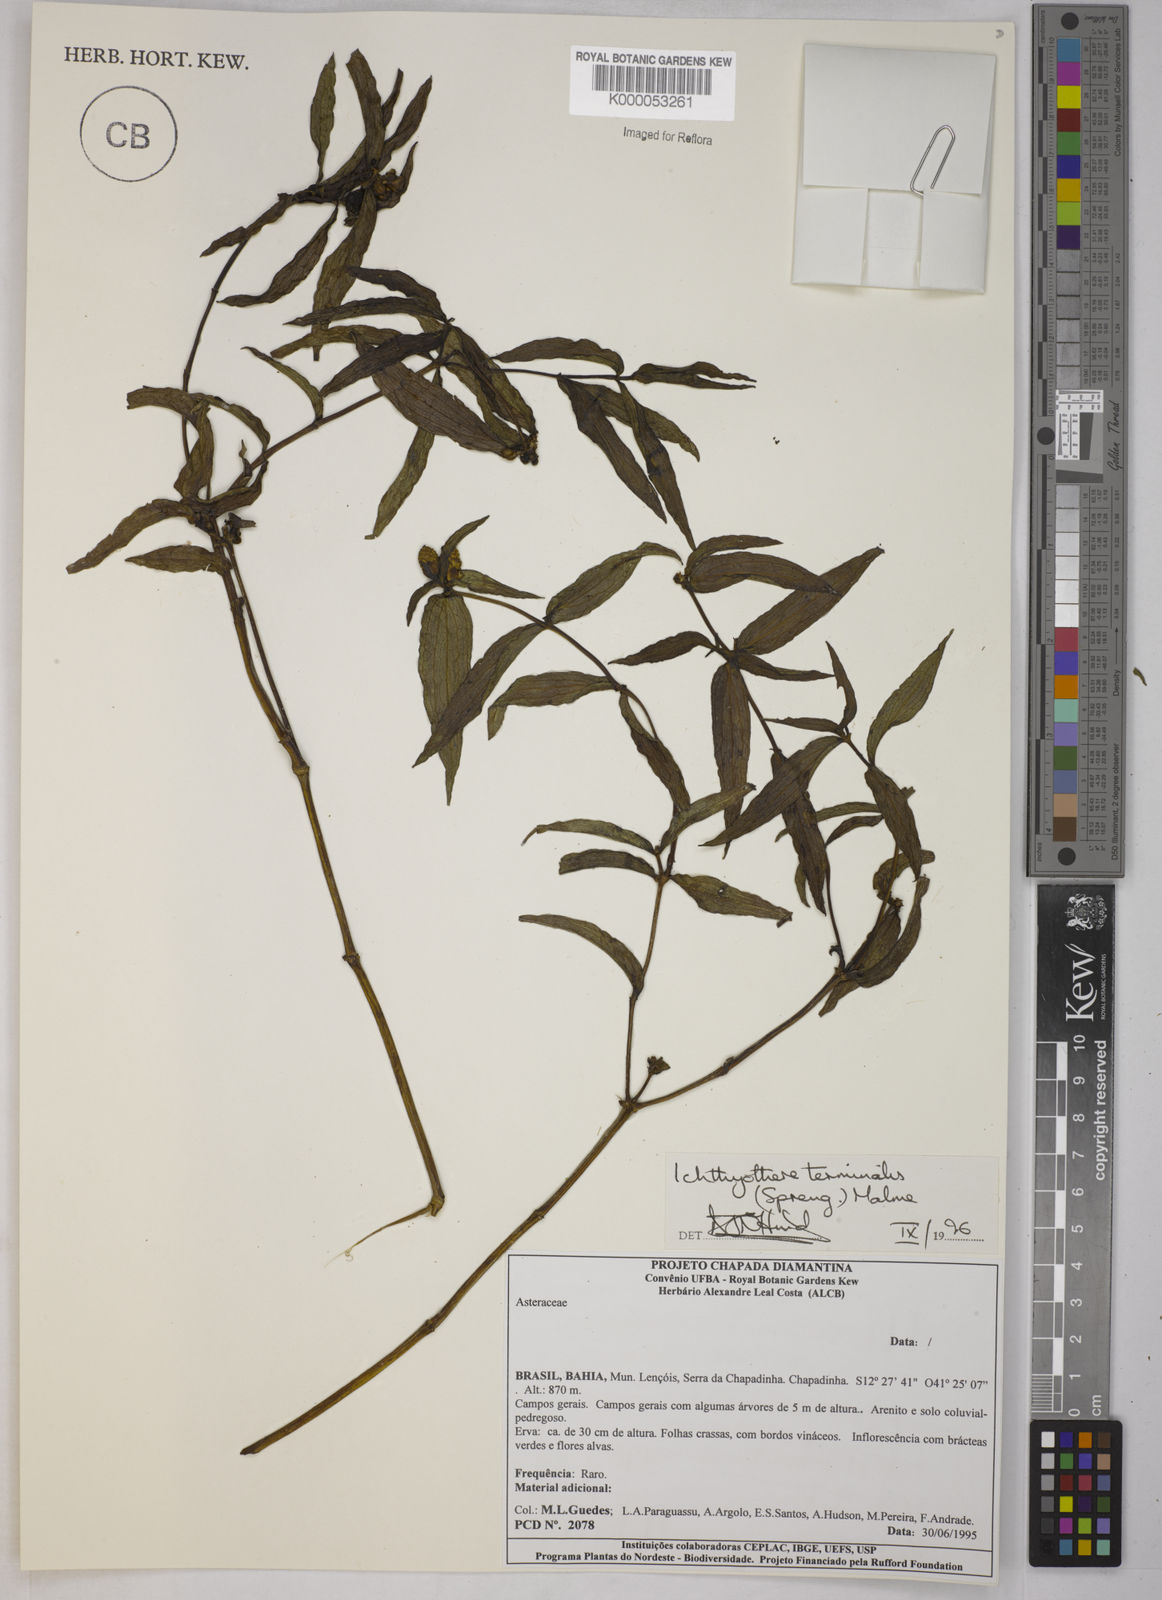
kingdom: Plantae
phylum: Tracheophyta
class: Magnoliopsida
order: Asterales
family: Asteraceae
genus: Ichthyothere
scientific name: Ichthyothere terminalis
